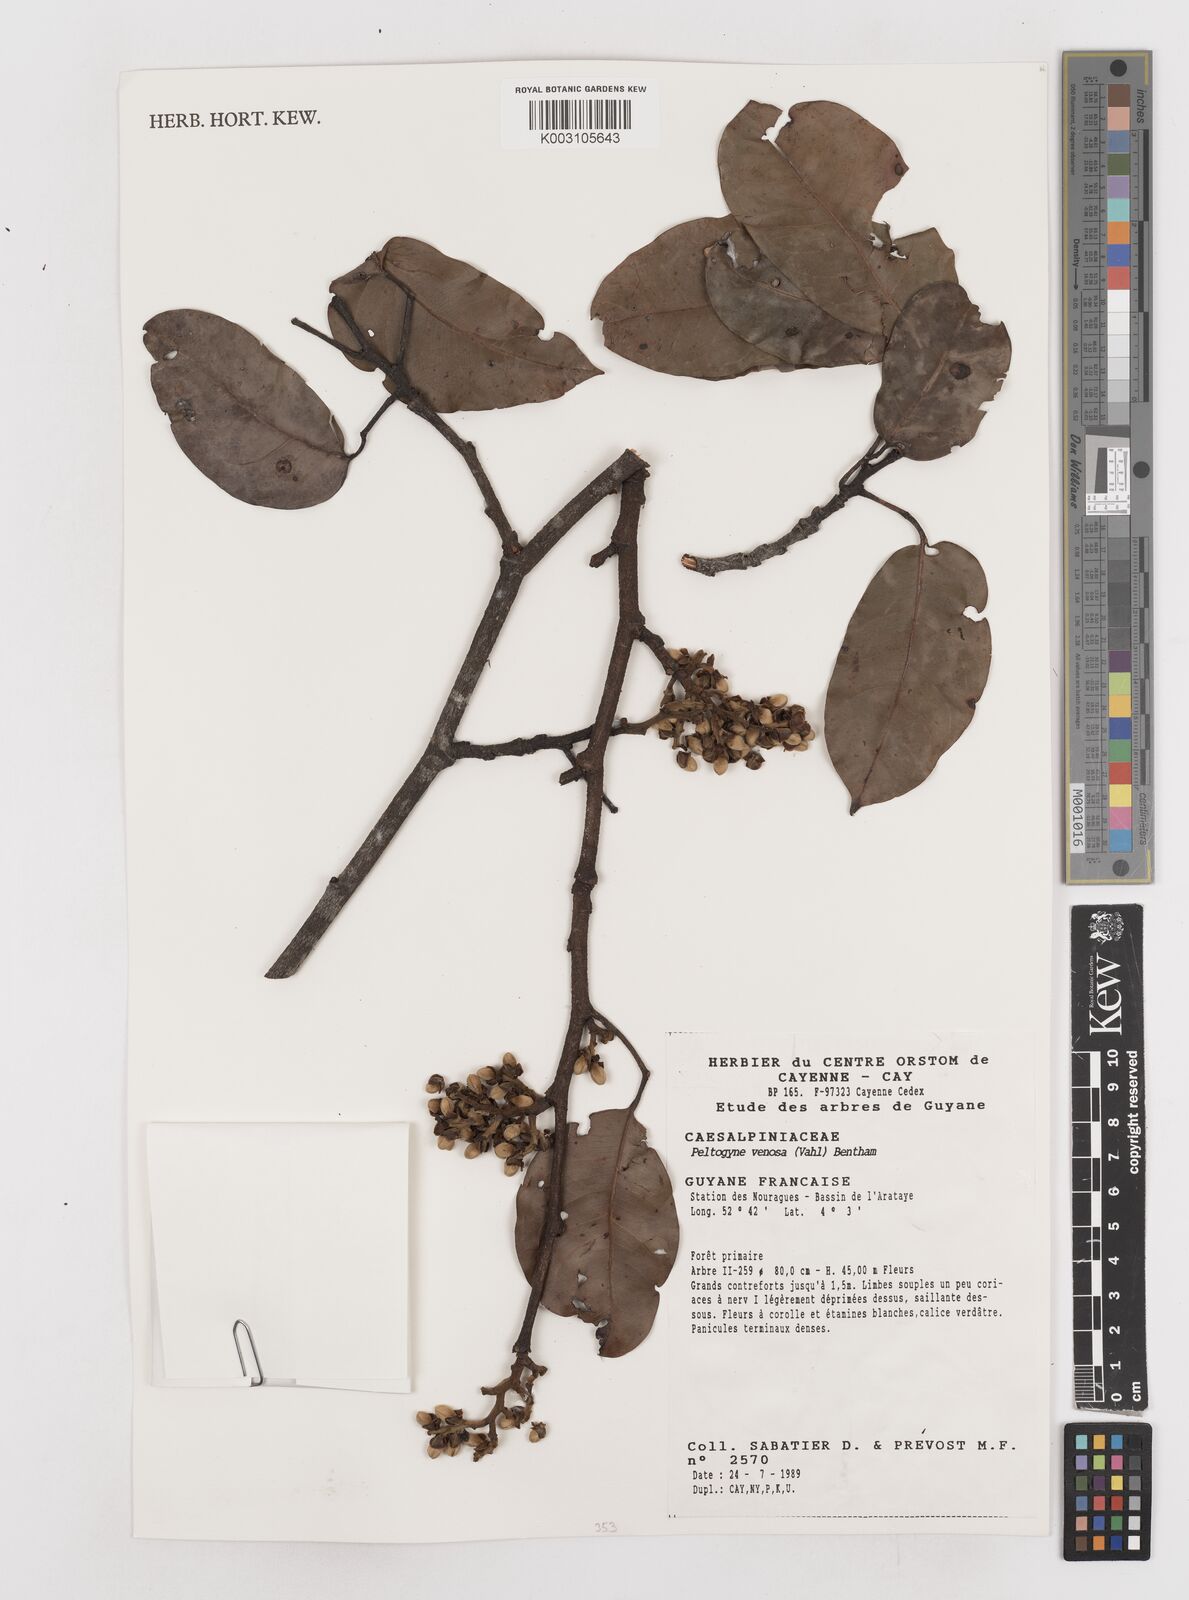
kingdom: Plantae
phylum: Tracheophyta
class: Magnoliopsida
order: Fabales
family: Fabaceae
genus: Peltogyne
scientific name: Peltogyne venosa
